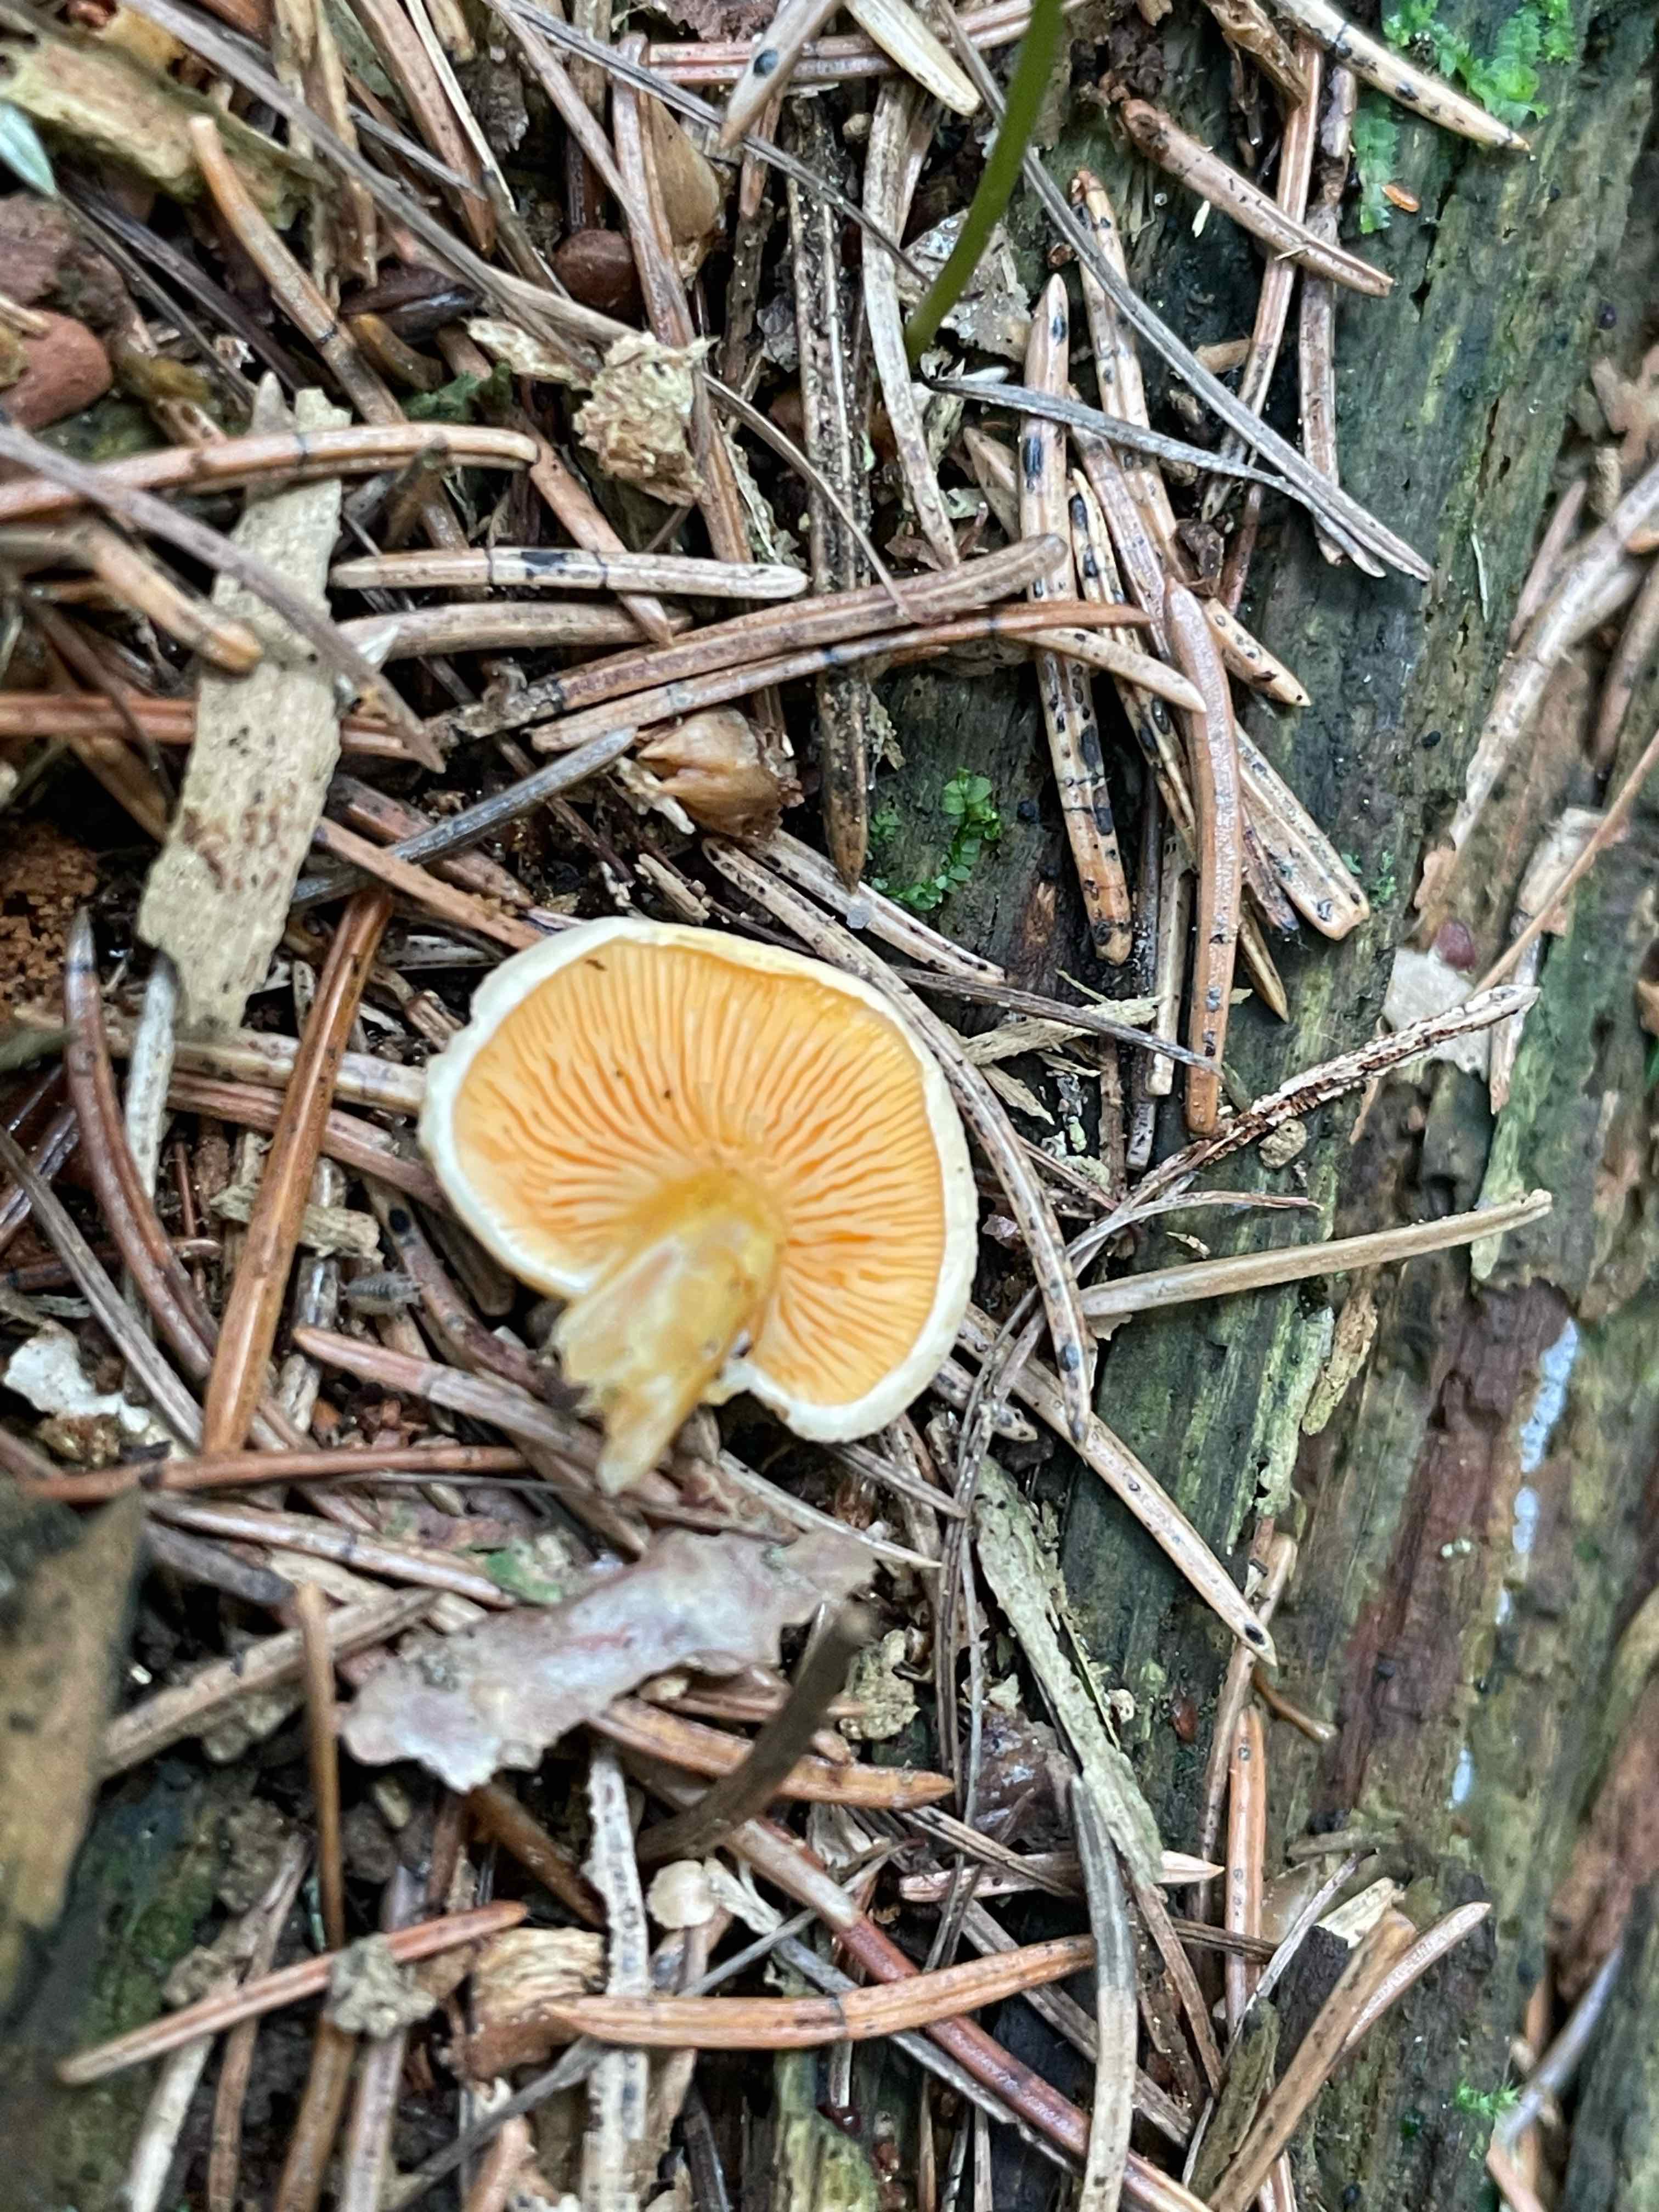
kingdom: Fungi
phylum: Basidiomycota
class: Agaricomycetes
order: Boletales
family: Hygrophoropsidaceae
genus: Hygrophoropsis
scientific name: Hygrophoropsis aurantiaca
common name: almindelig orangekantarel
